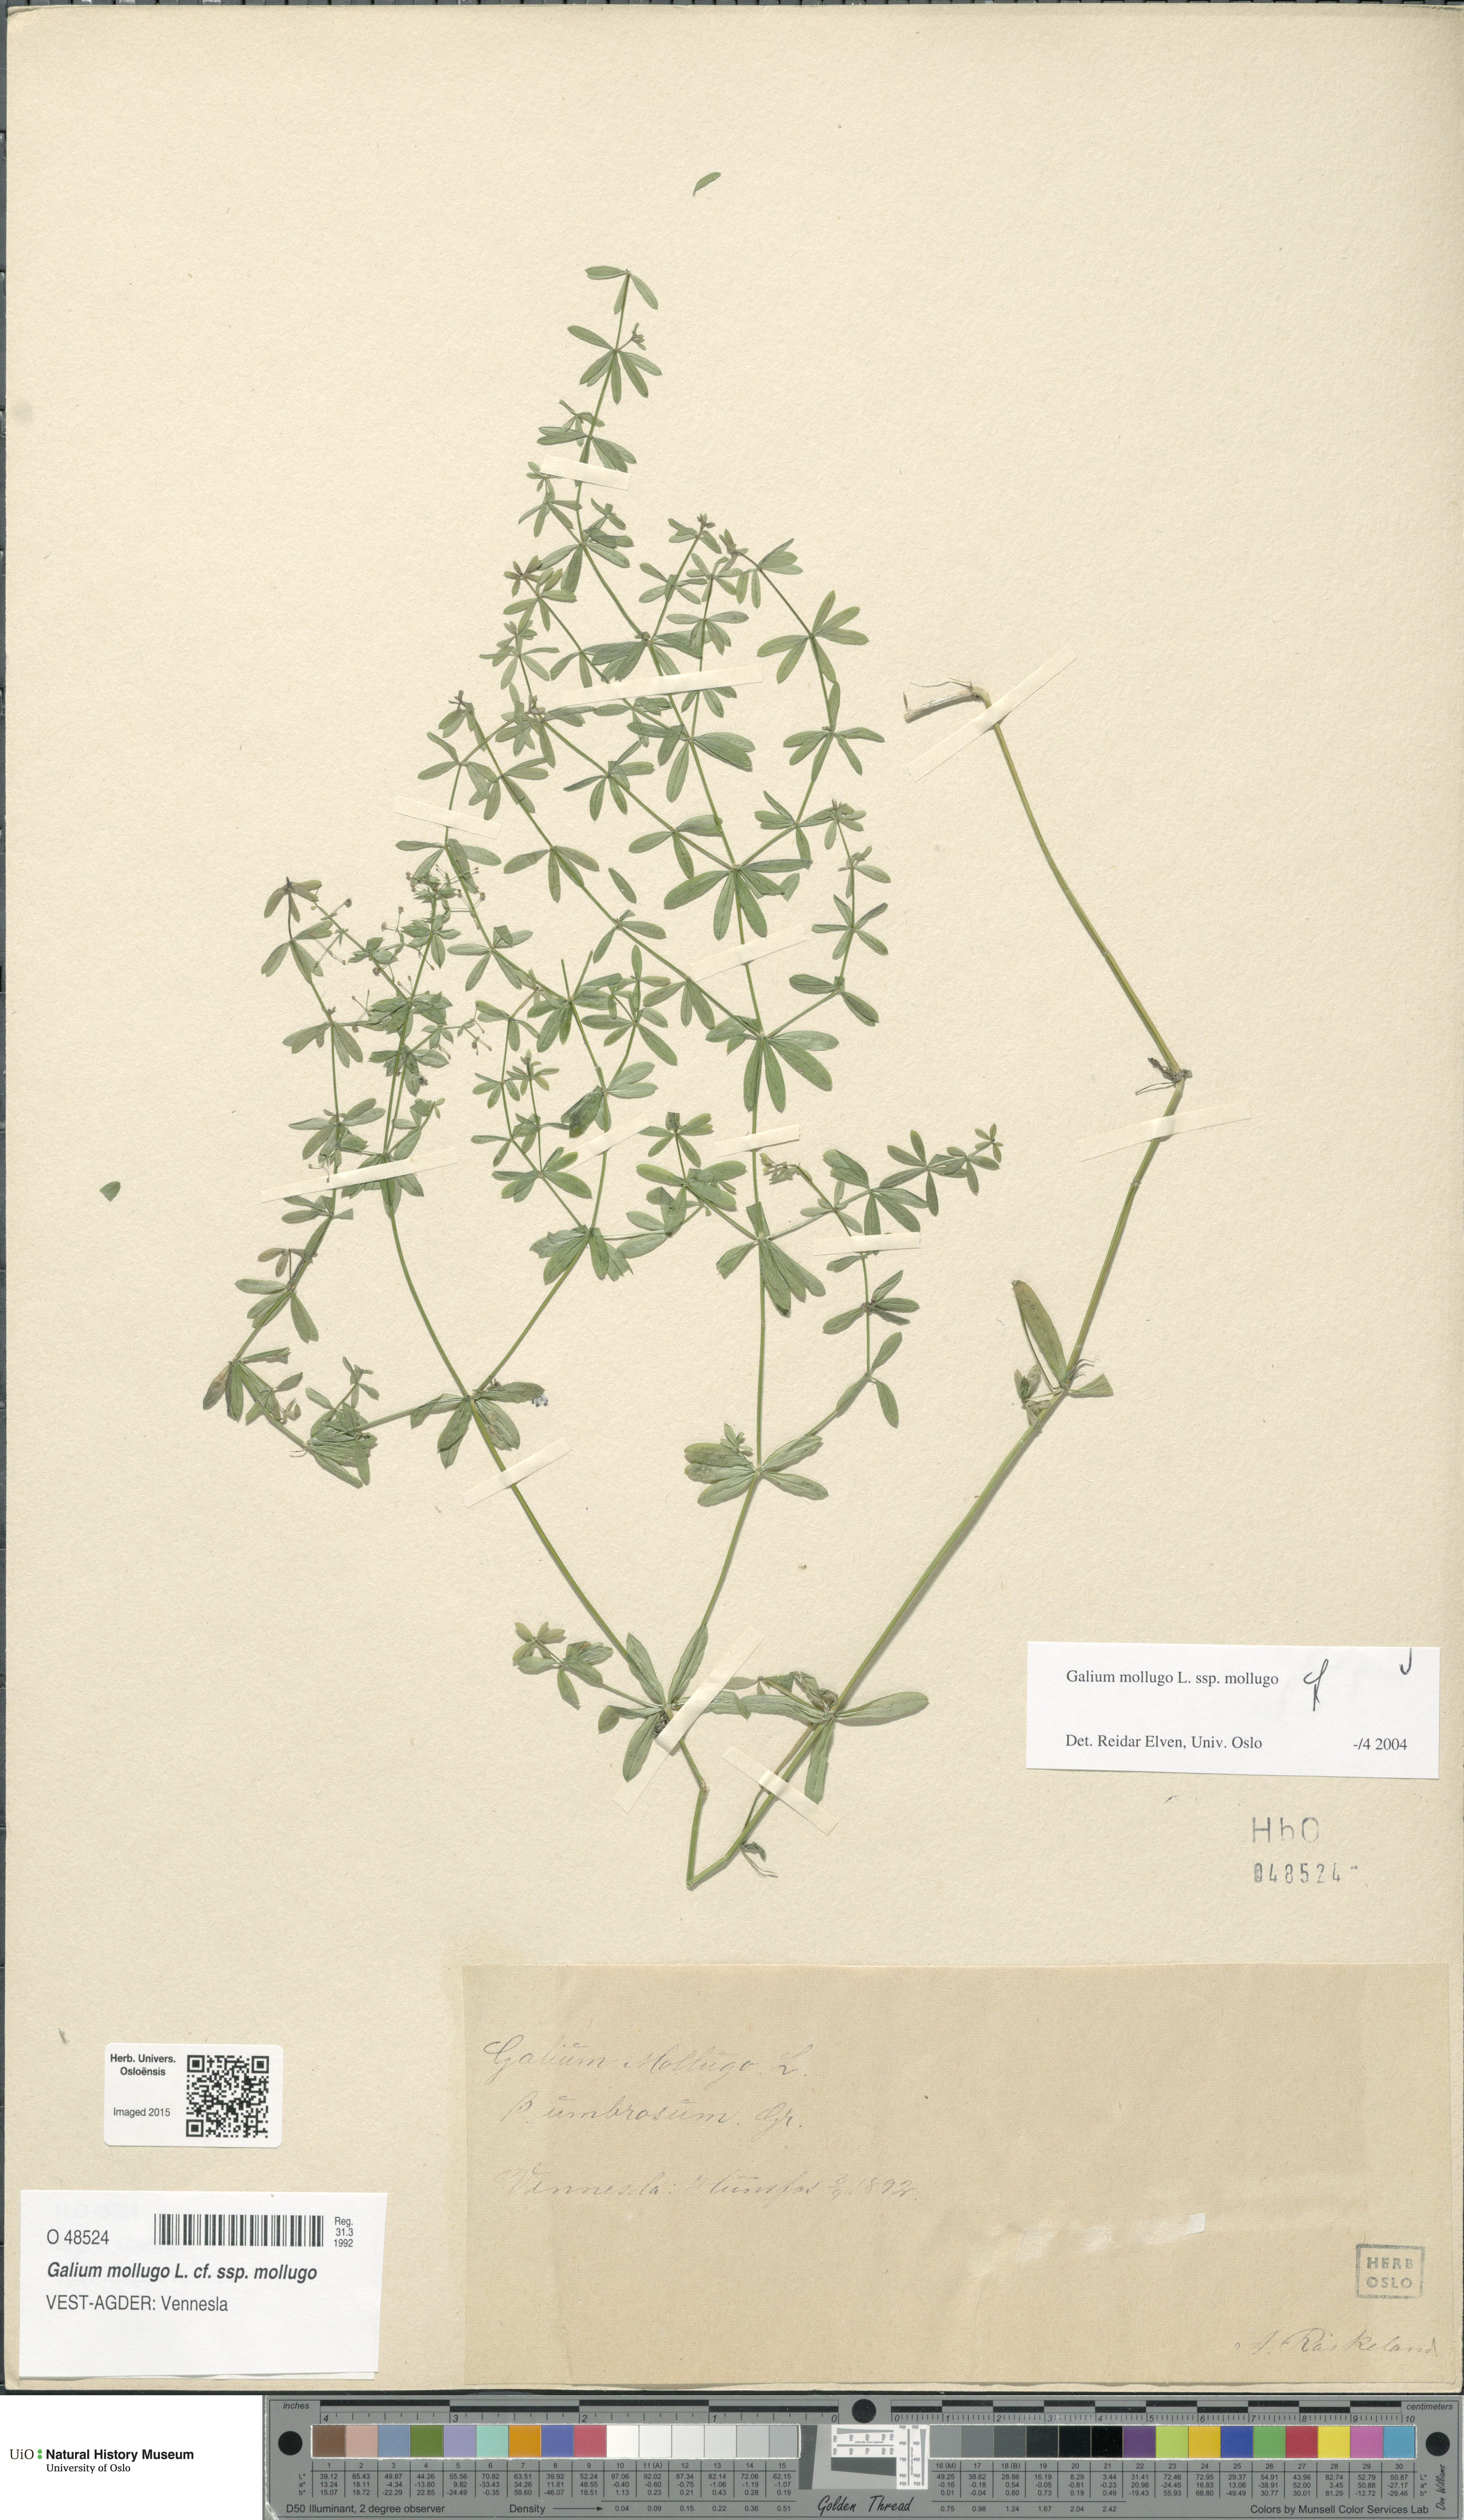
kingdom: Plantae
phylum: Tracheophyta
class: Magnoliopsida
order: Gentianales
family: Rubiaceae
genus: Galium
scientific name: Galium mollugo
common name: Hedge bedstraw
